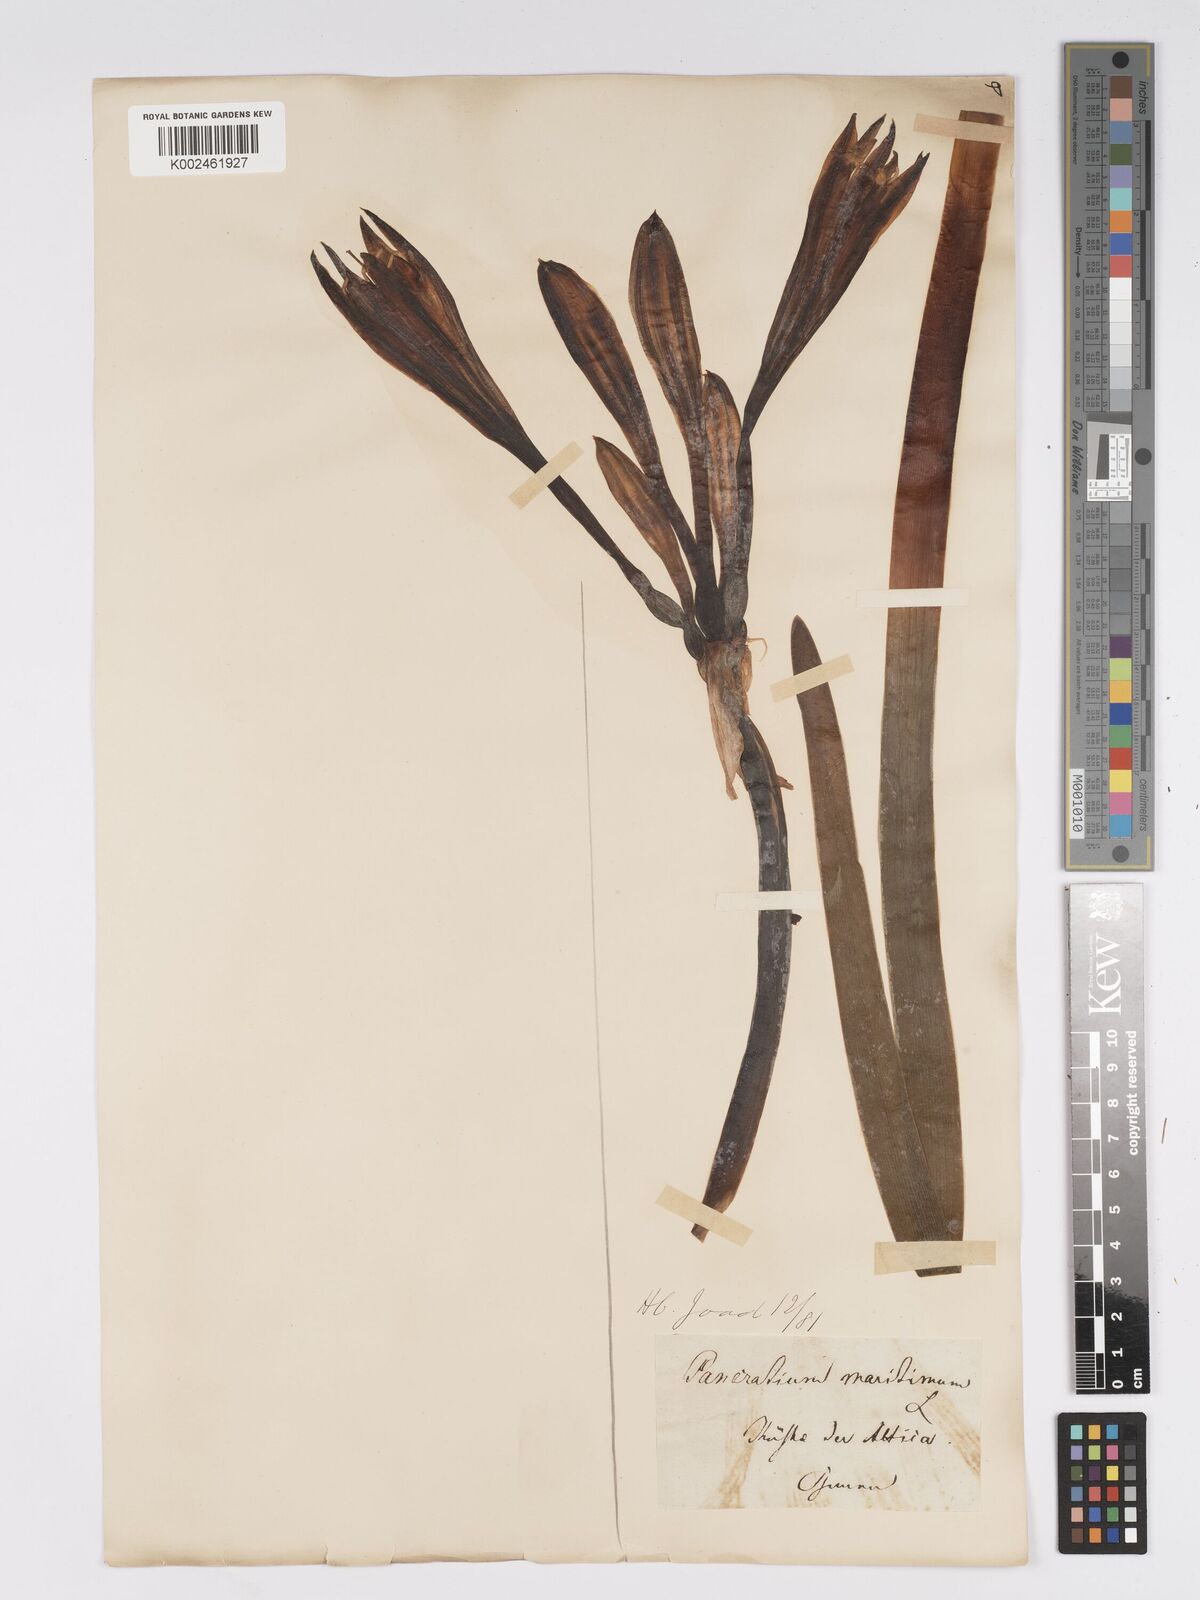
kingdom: Plantae
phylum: Tracheophyta
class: Liliopsida
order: Asparagales
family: Amaryllidaceae
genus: Pancratium
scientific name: Pancratium maritimum
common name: Sea-daffodil
